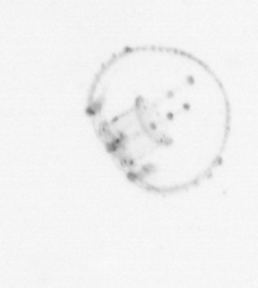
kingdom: Animalia
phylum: Cnidaria
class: Hydrozoa
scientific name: Hydrozoa
